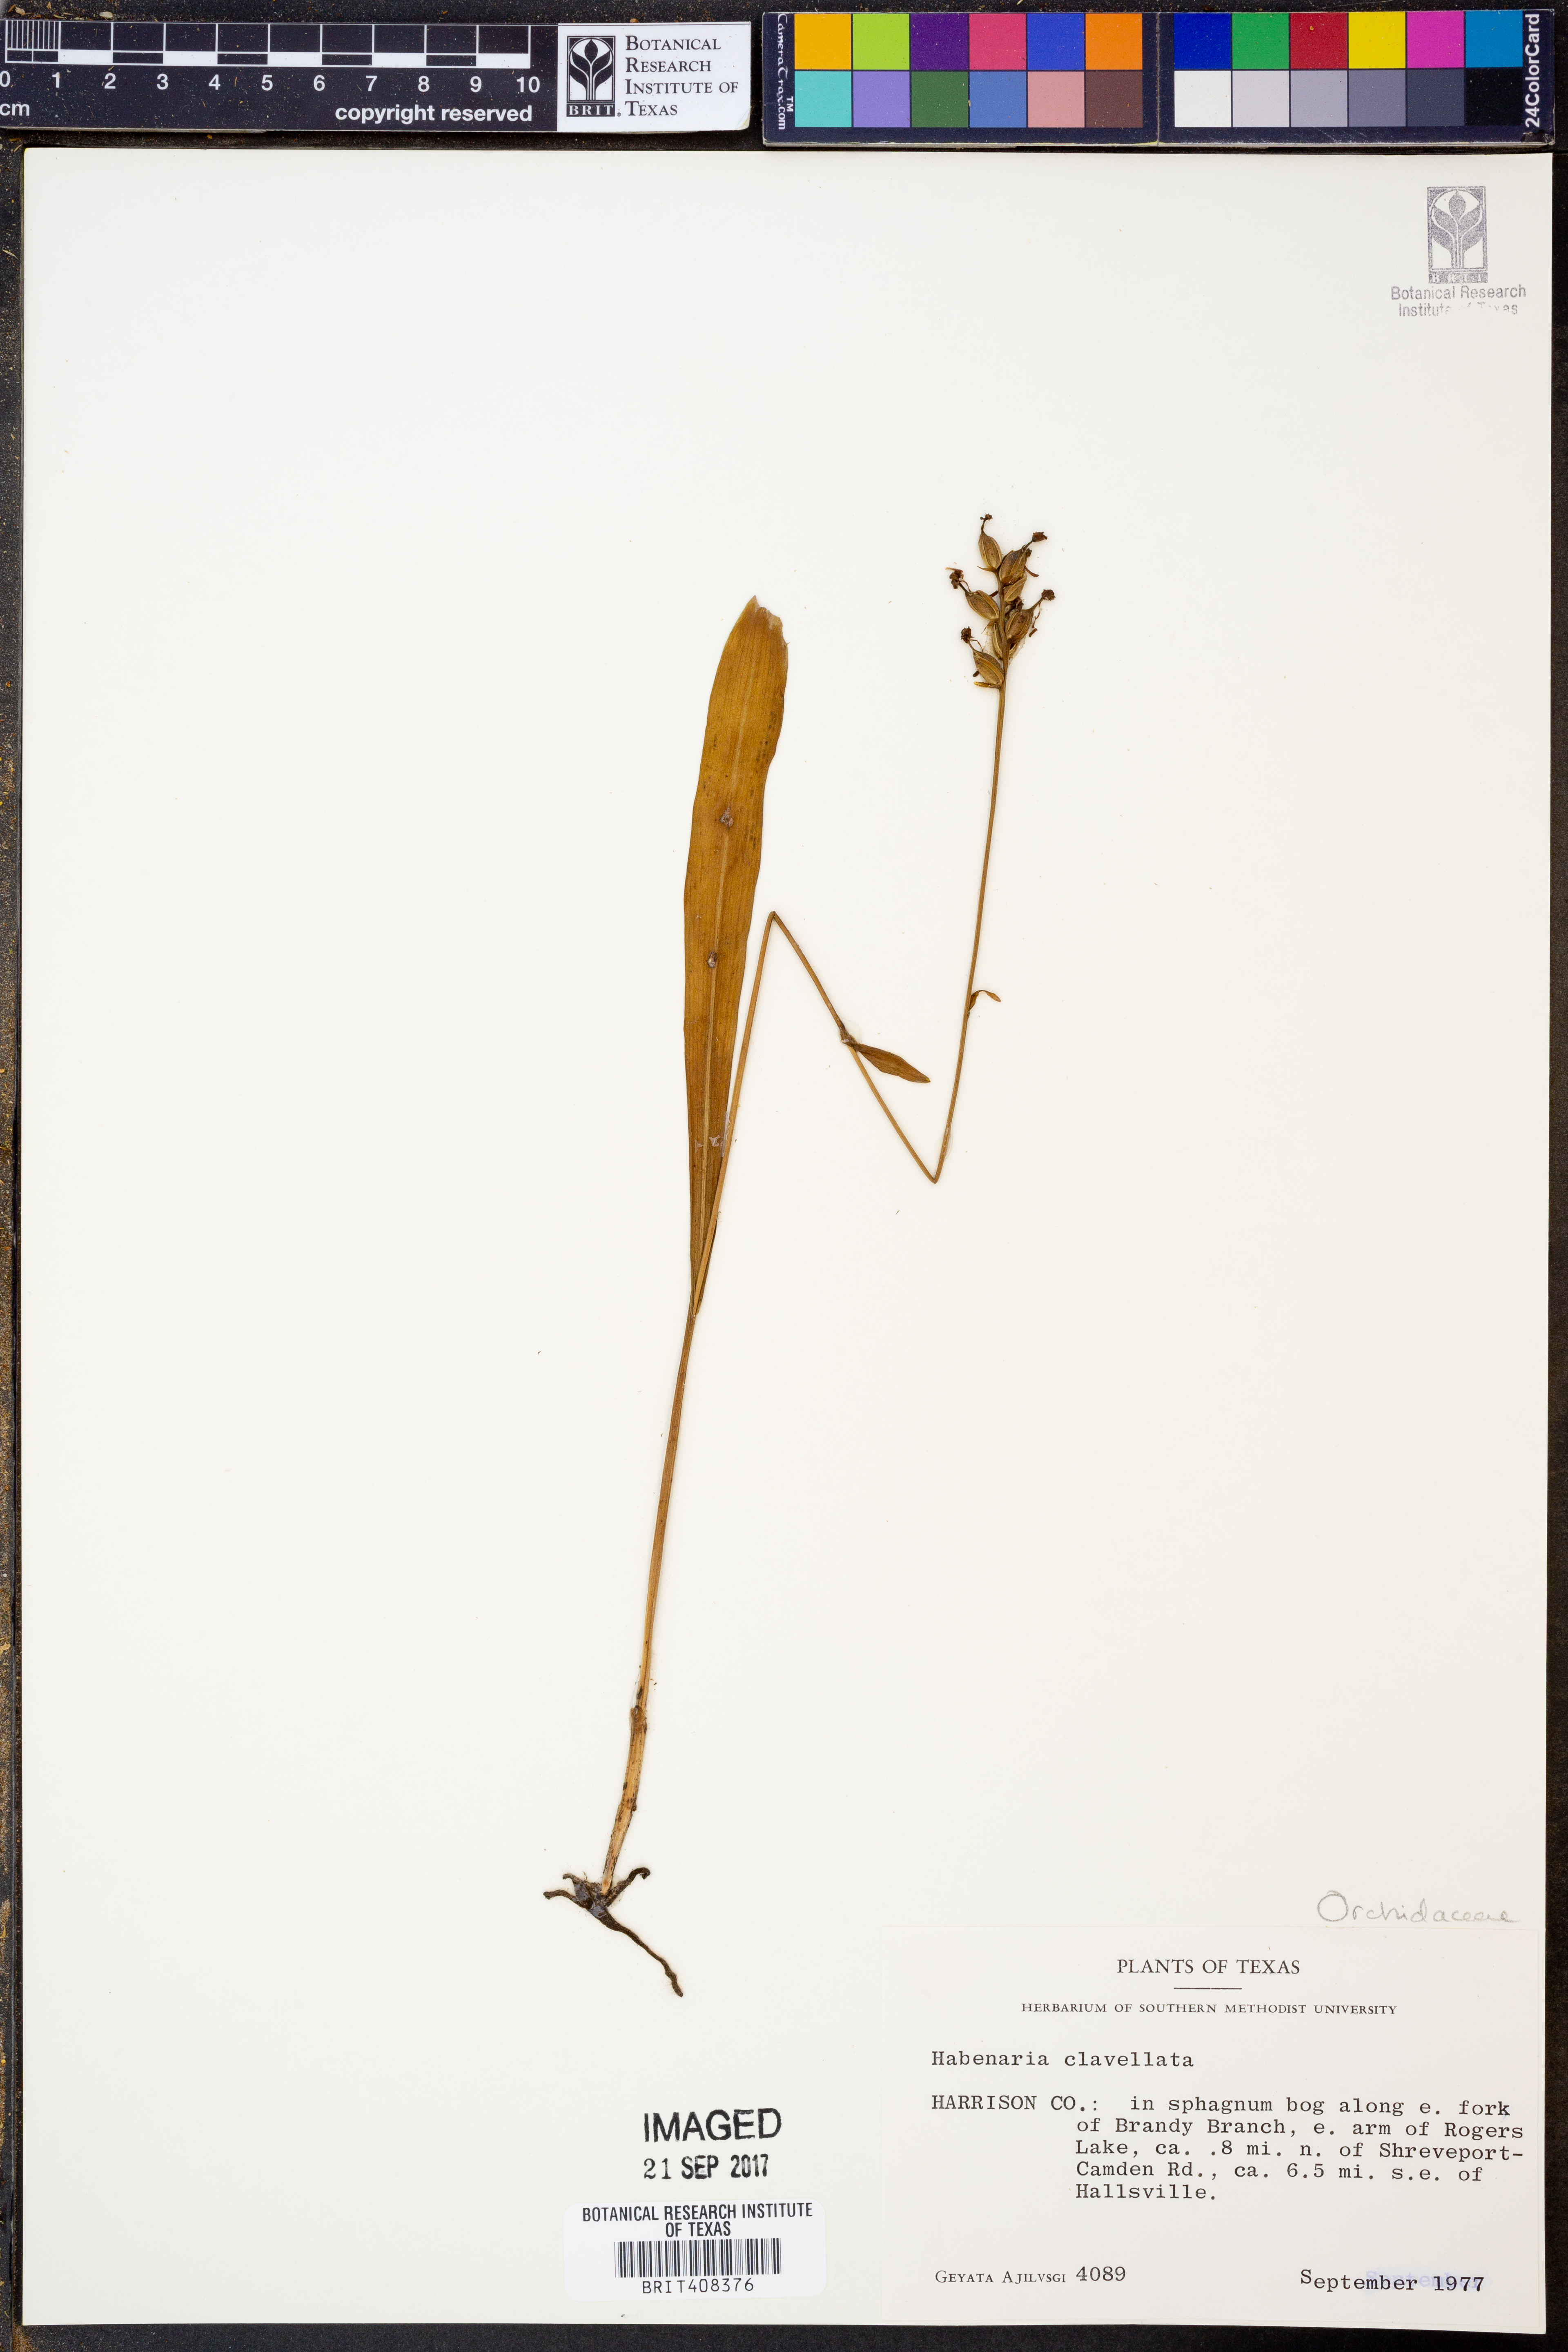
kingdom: Plantae
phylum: Tracheophyta
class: Liliopsida
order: Asparagales
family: Orchidaceae
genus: Platanthera
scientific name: Platanthera clavellata
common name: Club-spur orchid
